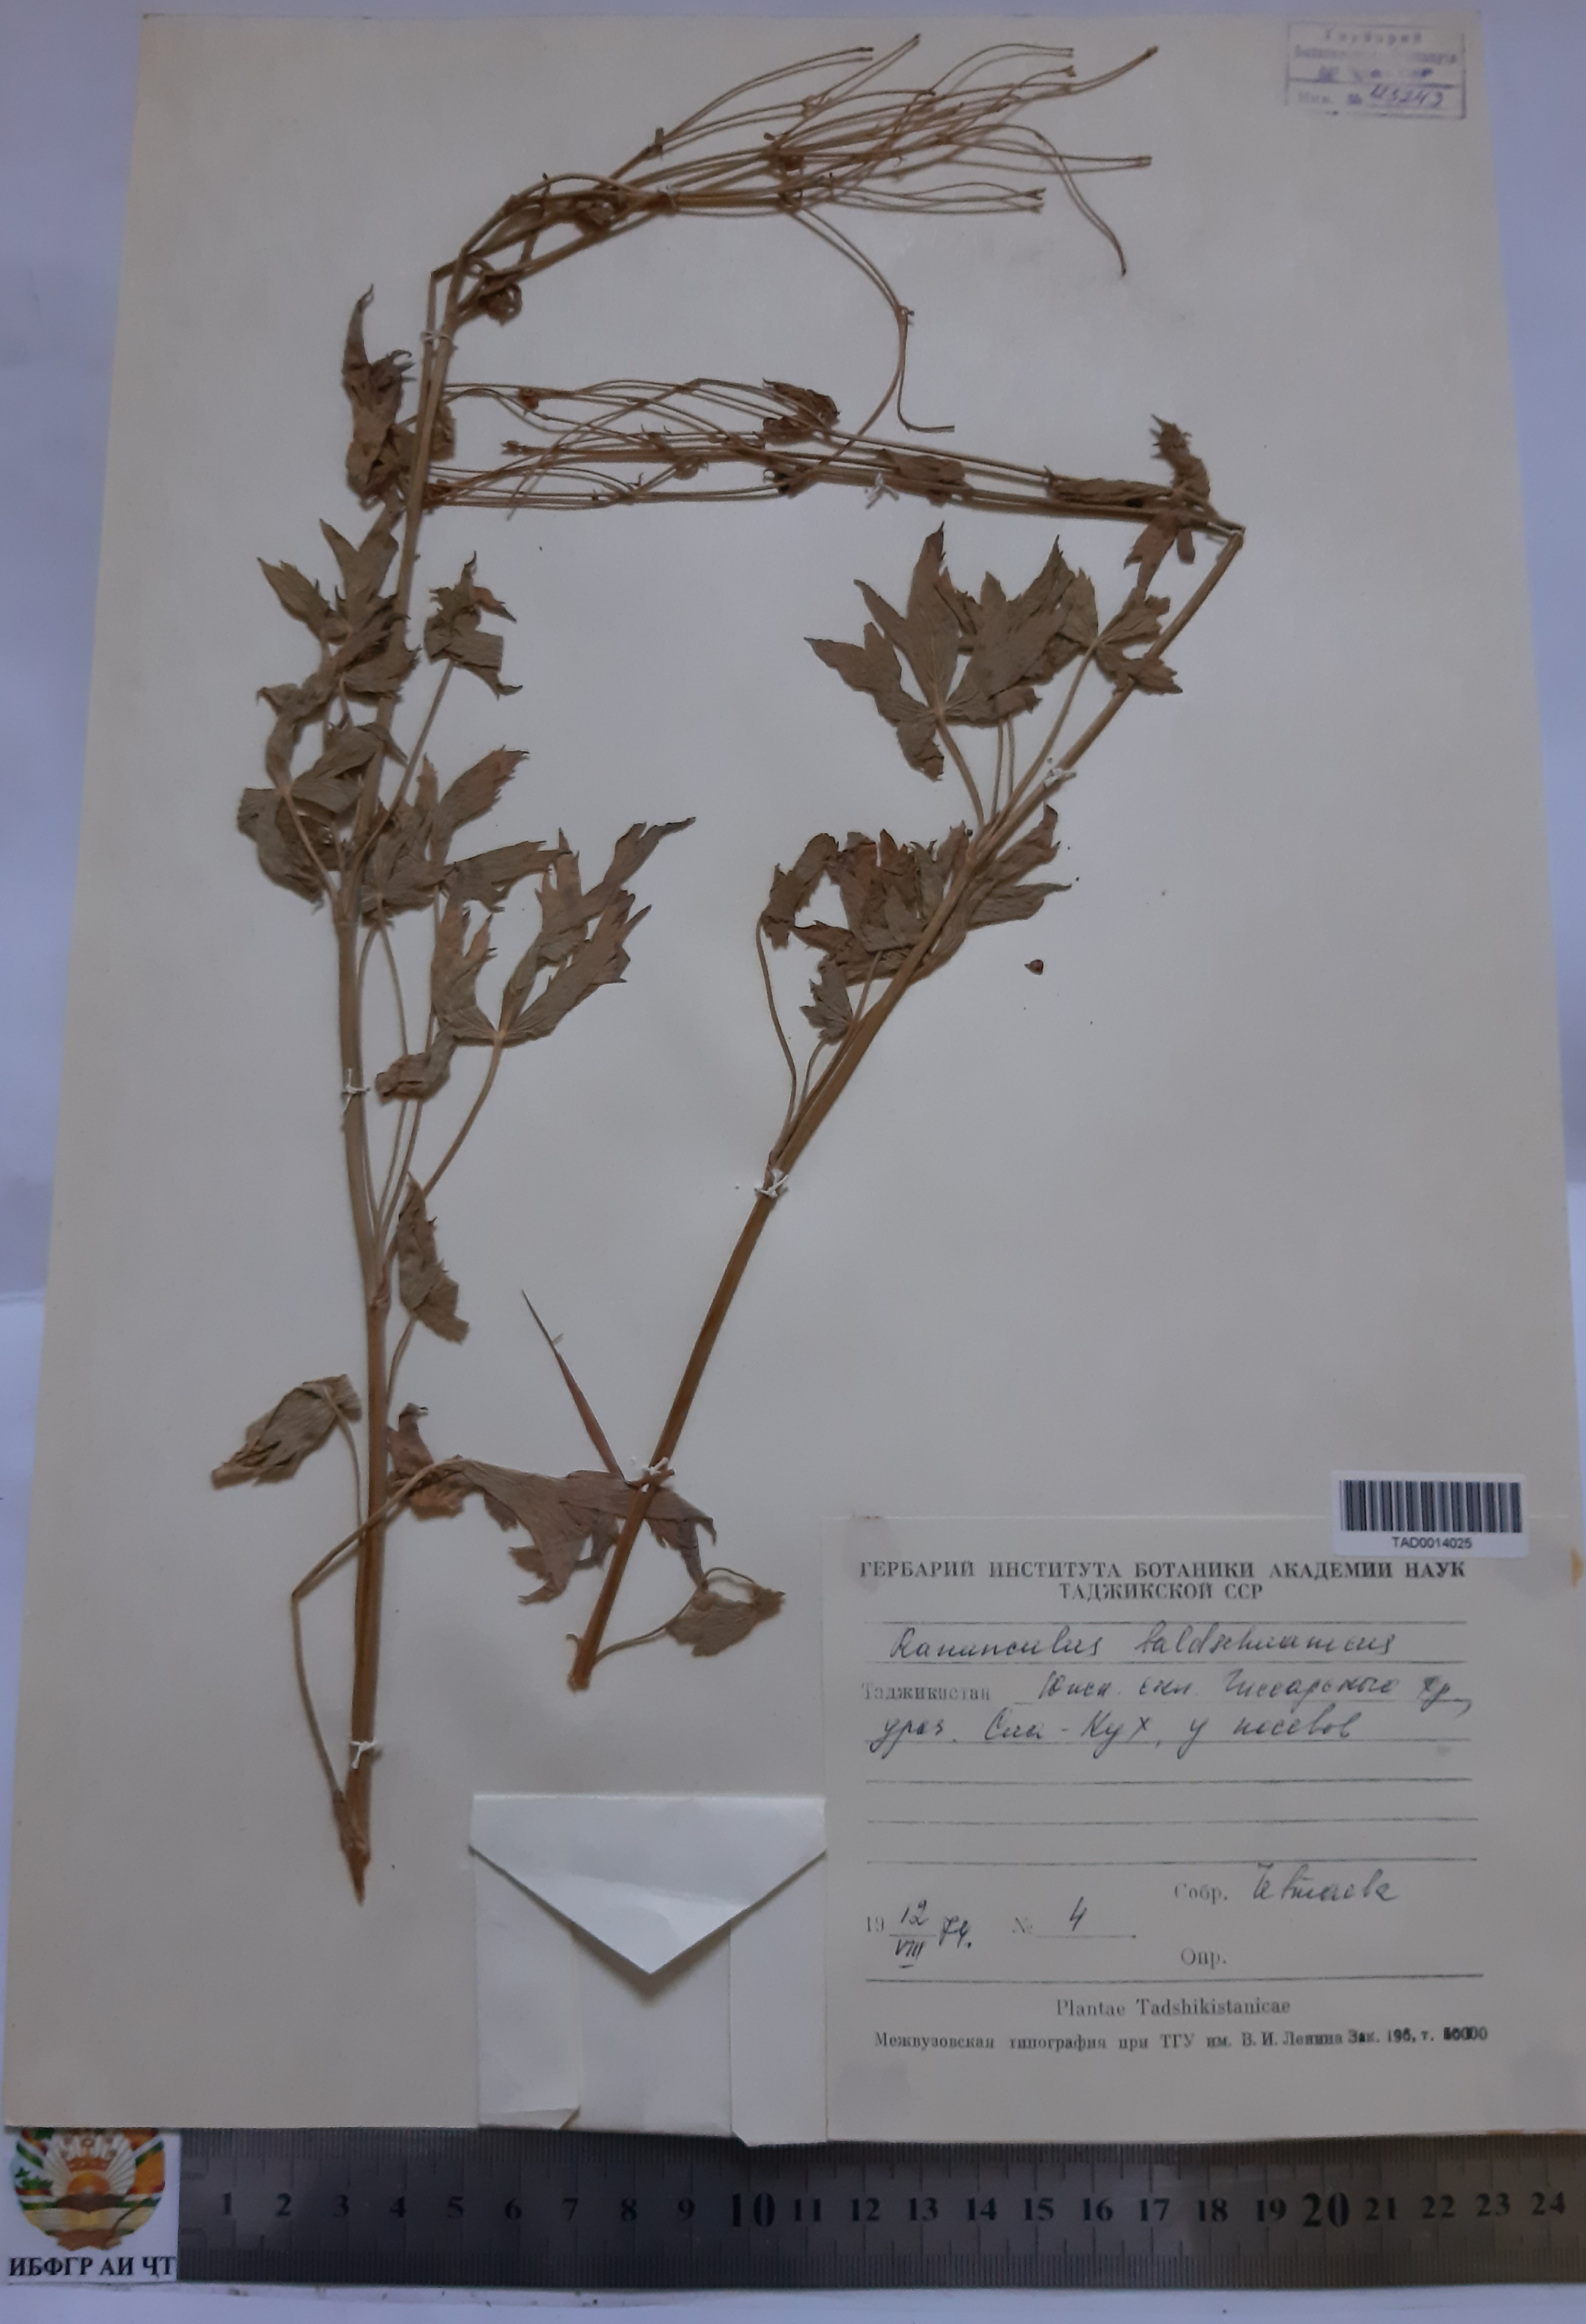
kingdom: Plantae
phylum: Tracheophyta
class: Magnoliopsida
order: Ranunculales
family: Ranunculaceae
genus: Ranunculus
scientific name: Ranunculus baldshuanicus
